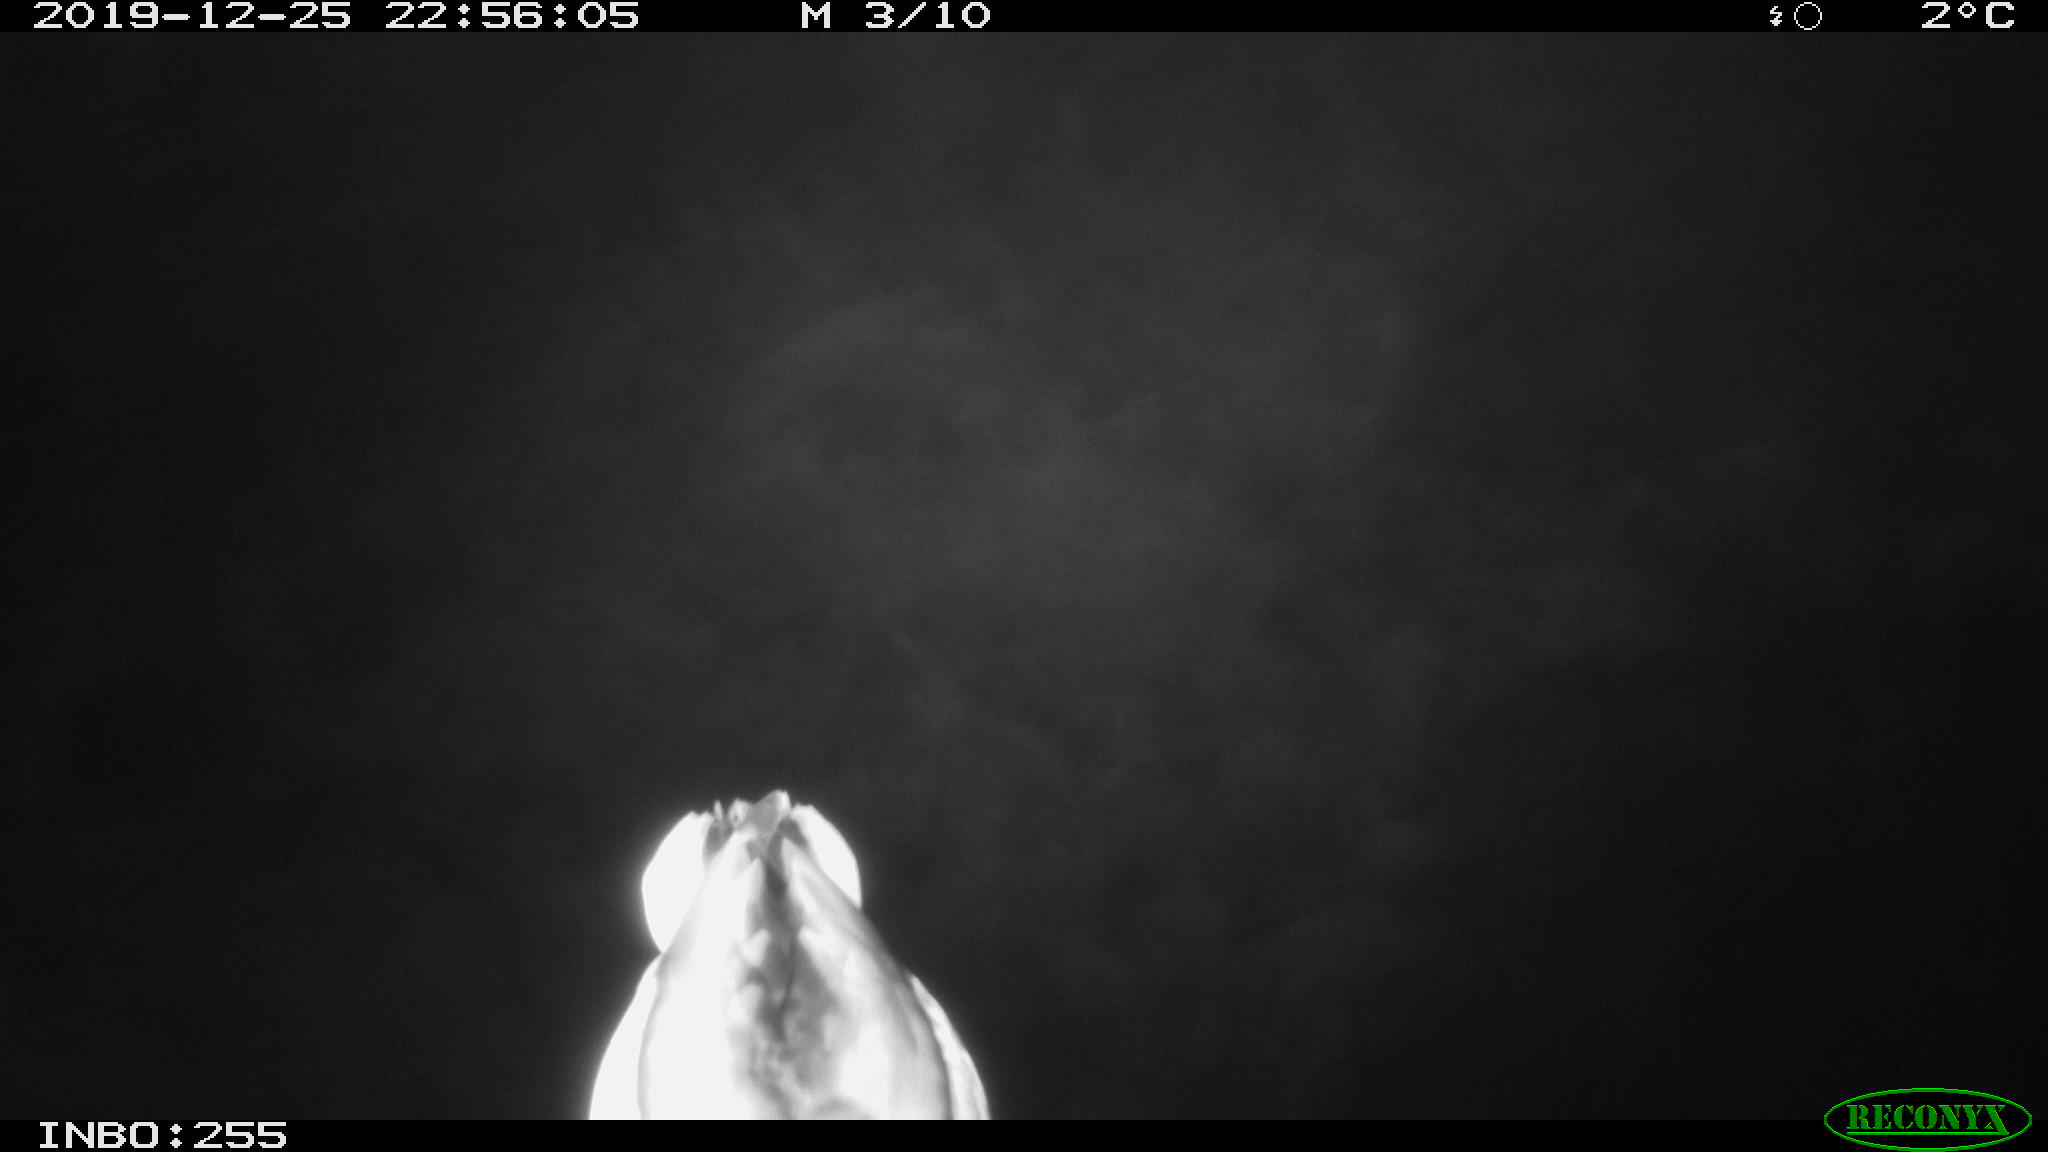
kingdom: Animalia
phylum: Chordata
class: Aves
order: Anseriformes
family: Anatidae
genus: Anas
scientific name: Anas platyrhynchos
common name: Mallard
